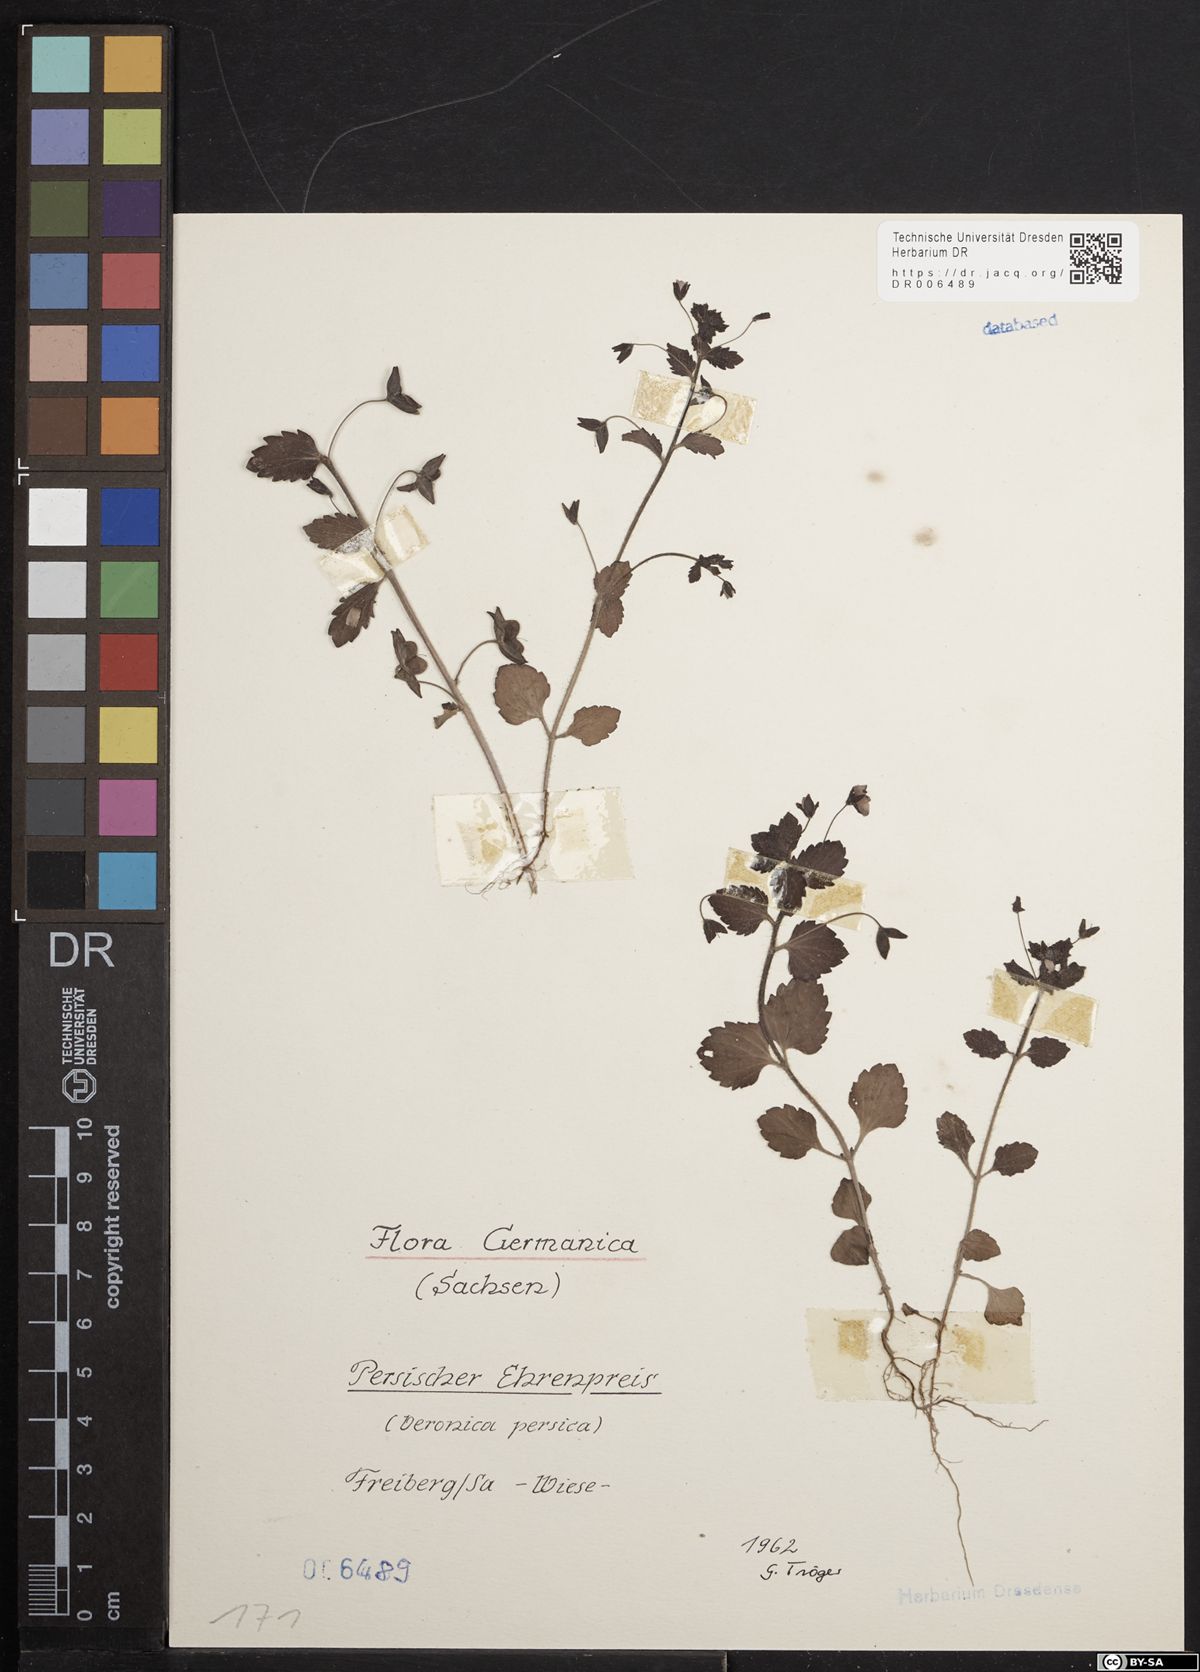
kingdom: Plantae
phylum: Tracheophyta
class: Magnoliopsida
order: Lamiales
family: Plantaginaceae
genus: Veronica
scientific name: Veronica persica
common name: Common field-speedwell
